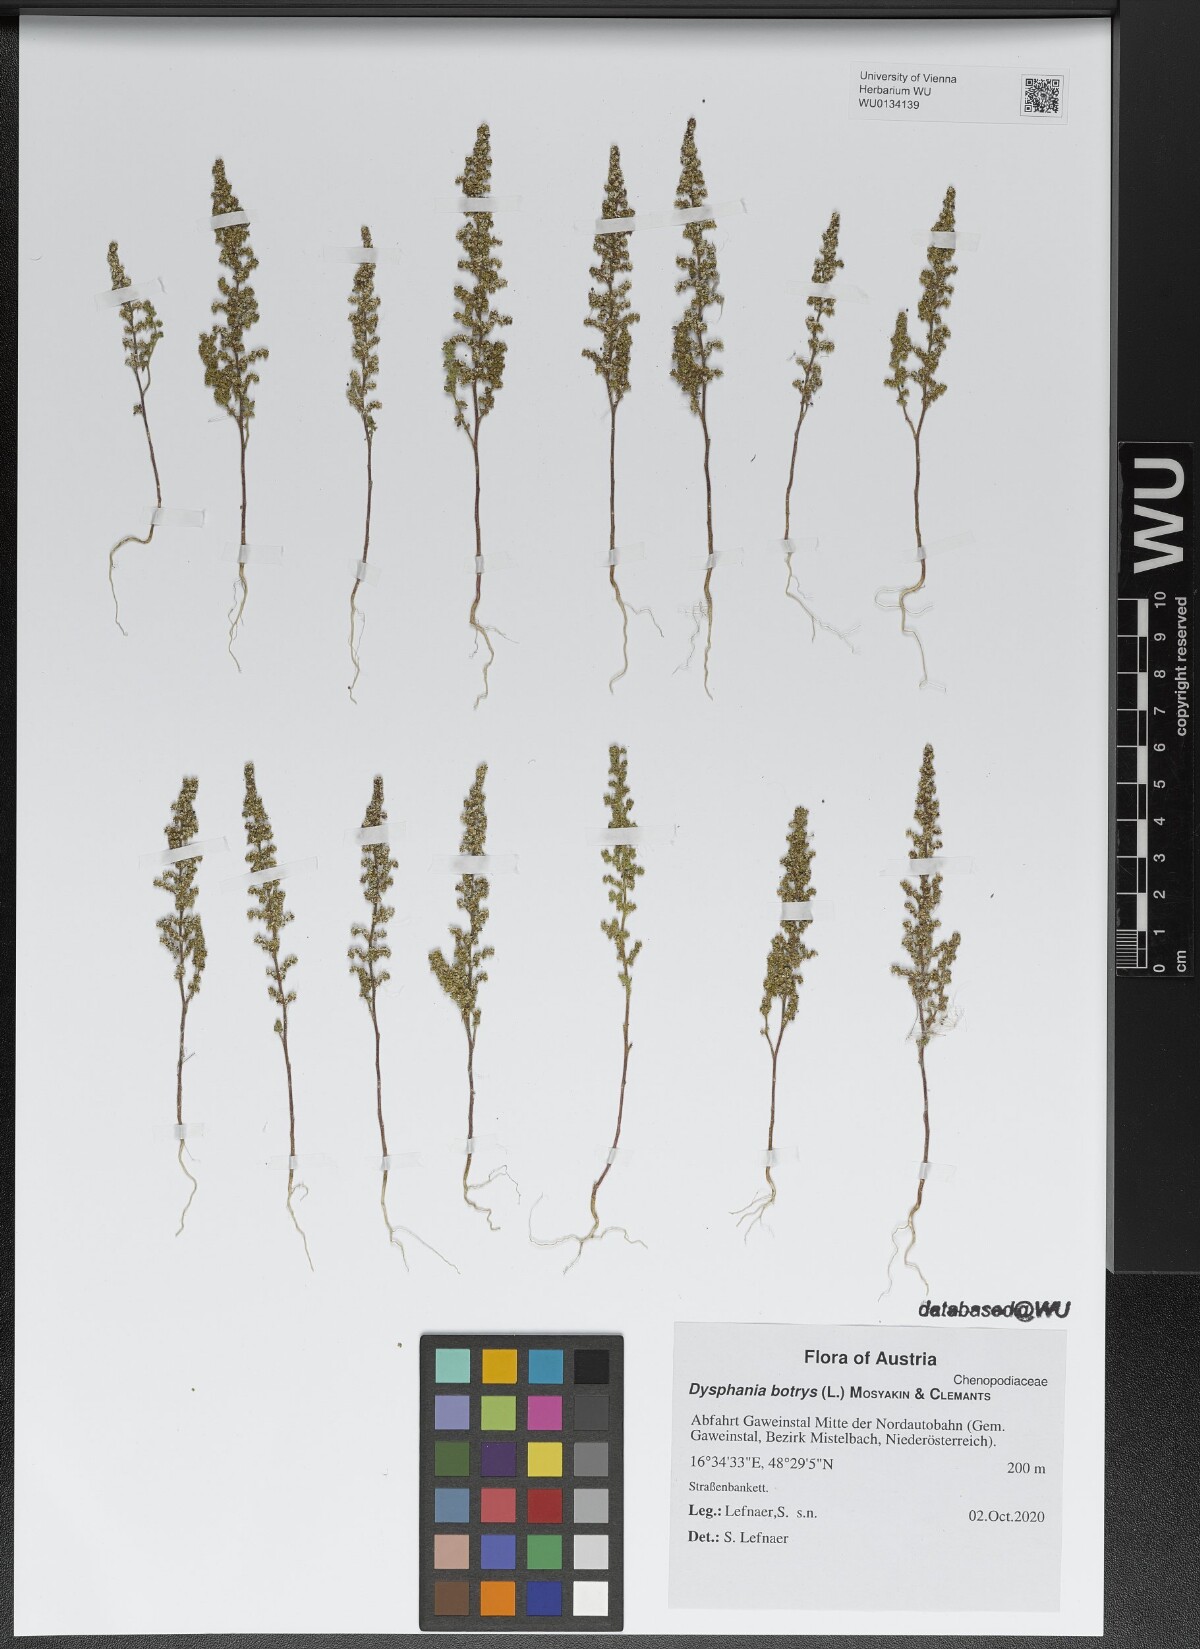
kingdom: Plantae
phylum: Tracheophyta
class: Magnoliopsida
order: Caryophyllales
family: Amaranthaceae
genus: Dysphania
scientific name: Dysphania botrys
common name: Feather-geranium
